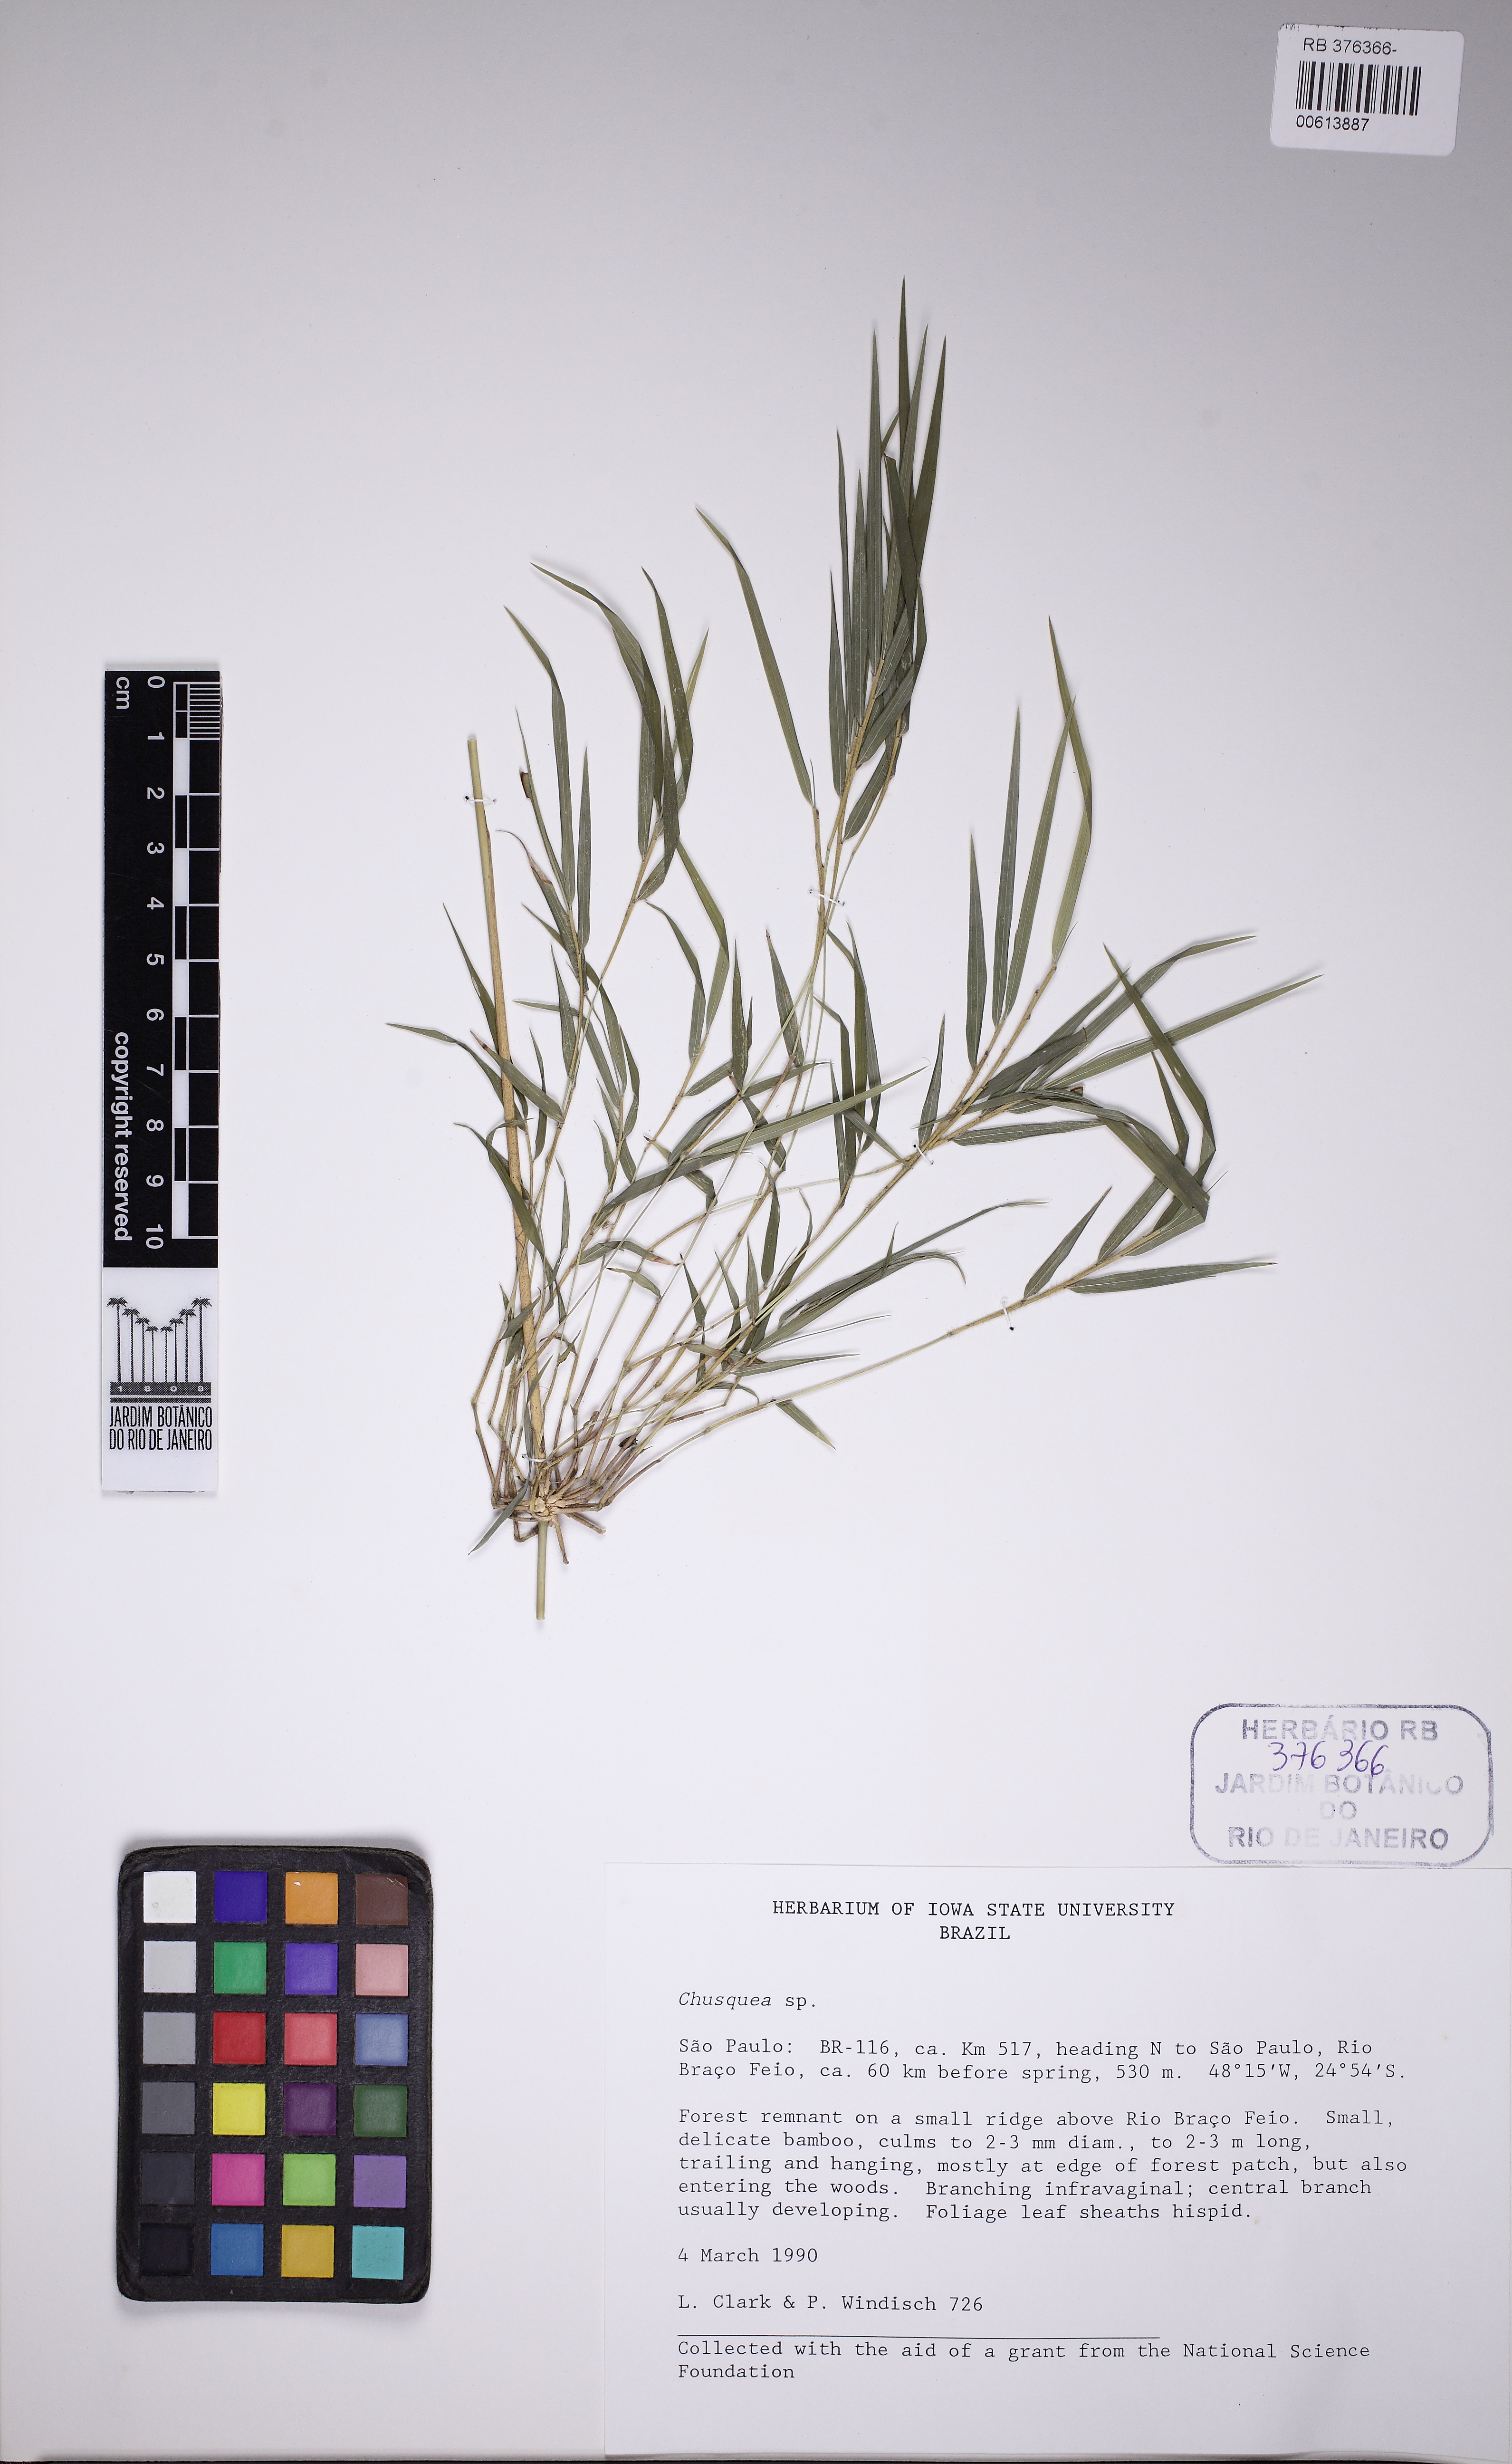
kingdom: Plantae
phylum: Tracheophyta
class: Liliopsida
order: Poales
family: Poaceae
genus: Chusquea
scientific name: Chusquea pulchella
